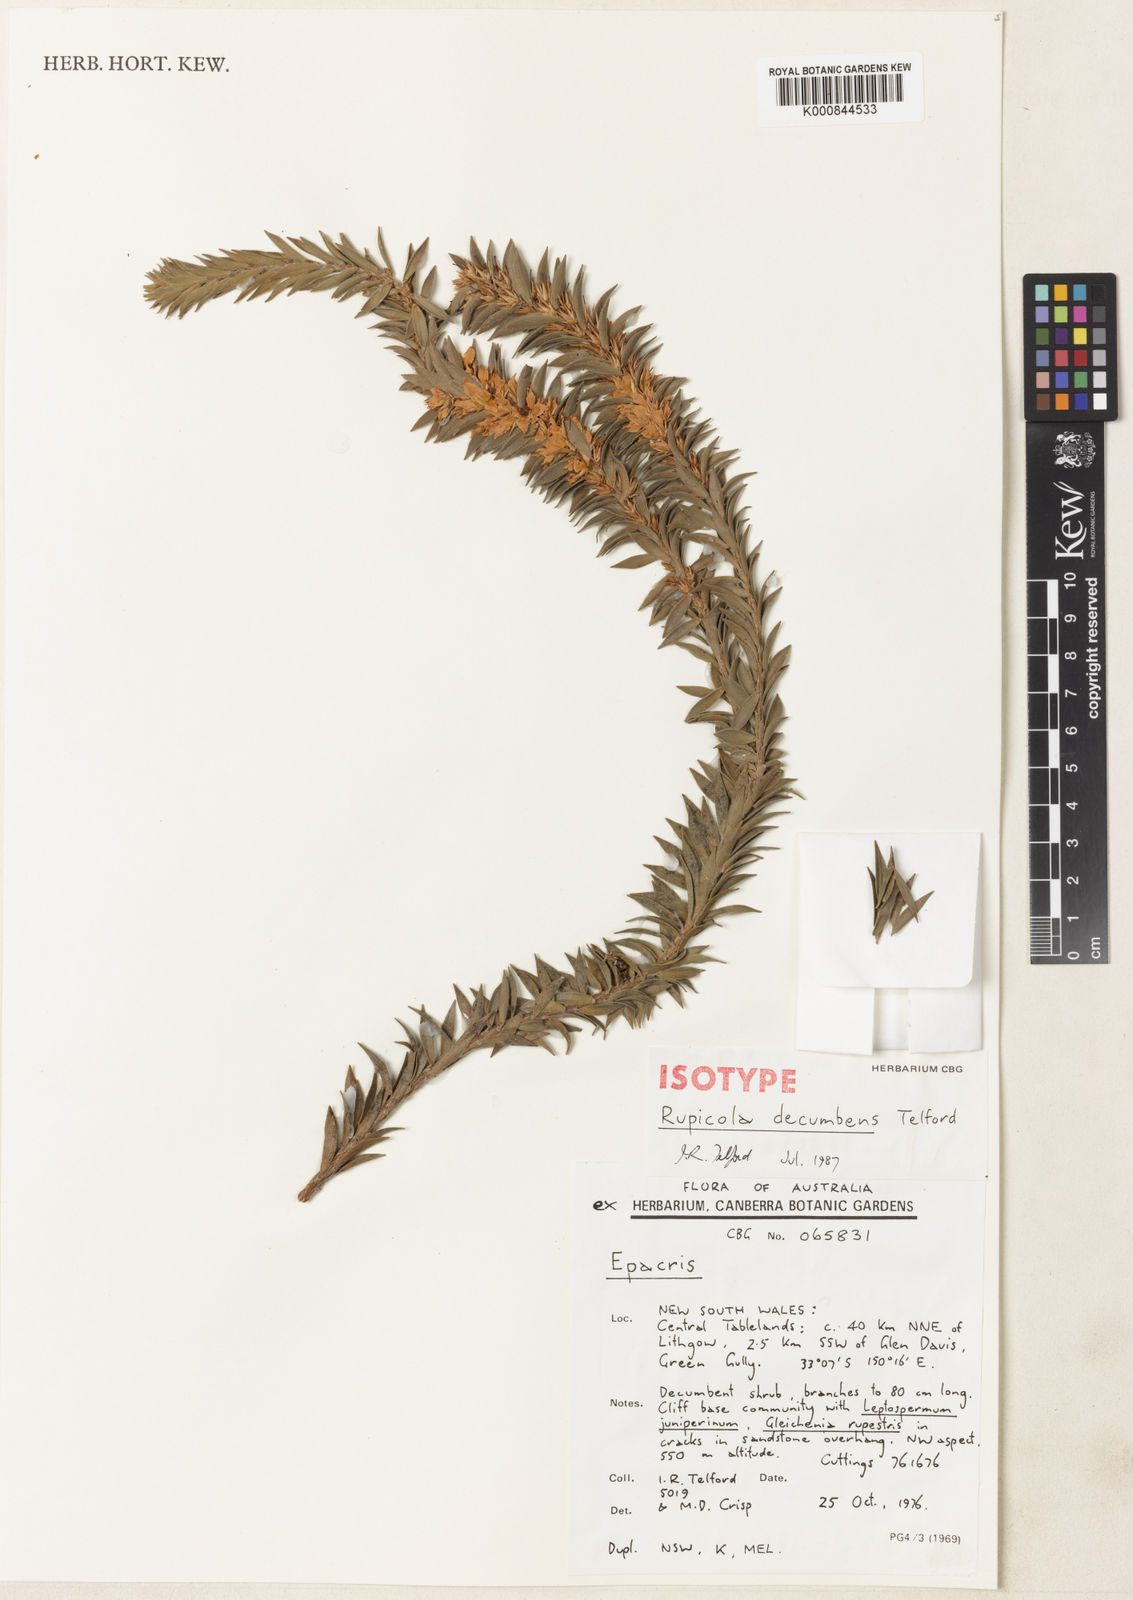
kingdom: Plantae
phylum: Tracheophyta
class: Magnoliopsida
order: Ericales
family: Ericaceae
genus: Epacris
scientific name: Epacris decumbens
